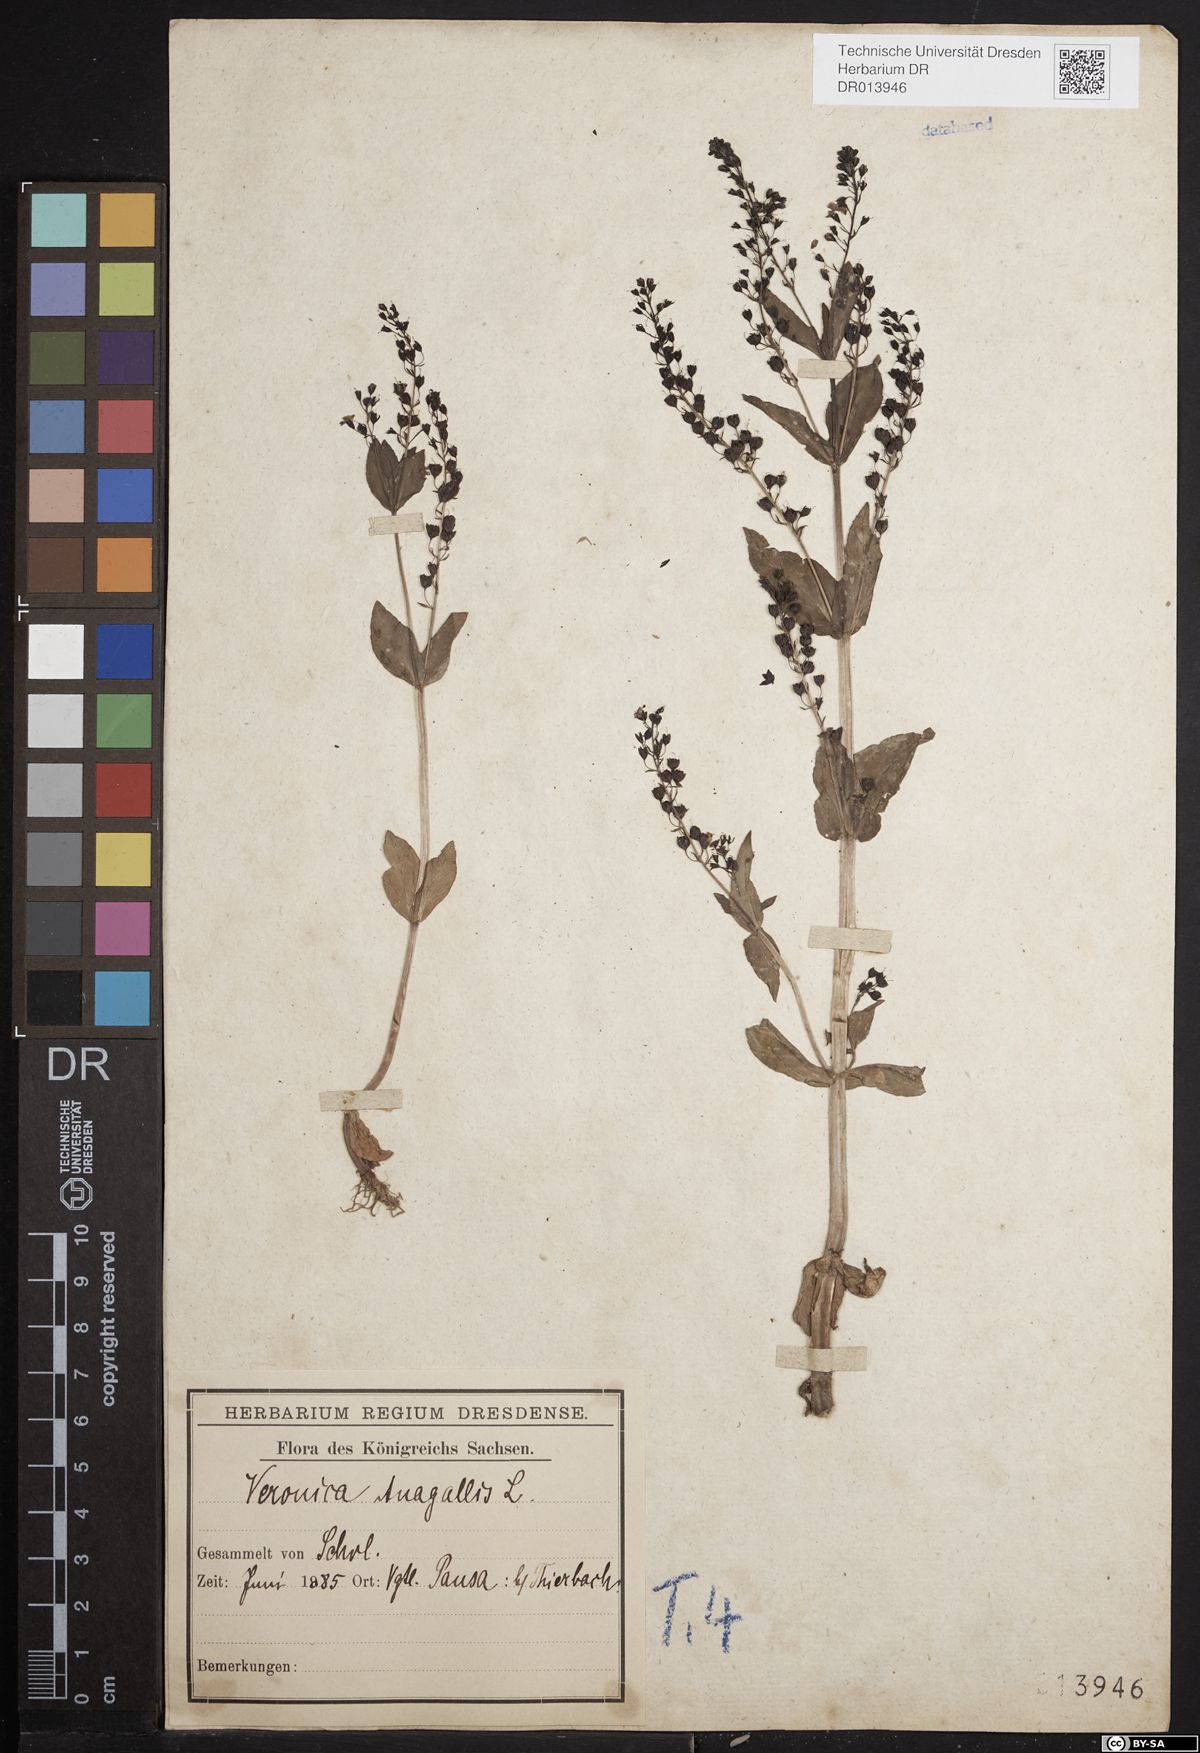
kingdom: Plantae
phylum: Tracheophyta
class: Magnoliopsida
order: Lamiales
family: Plantaginaceae
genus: Veronica
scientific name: Veronica anagallis-aquatica
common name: Water speedwell
